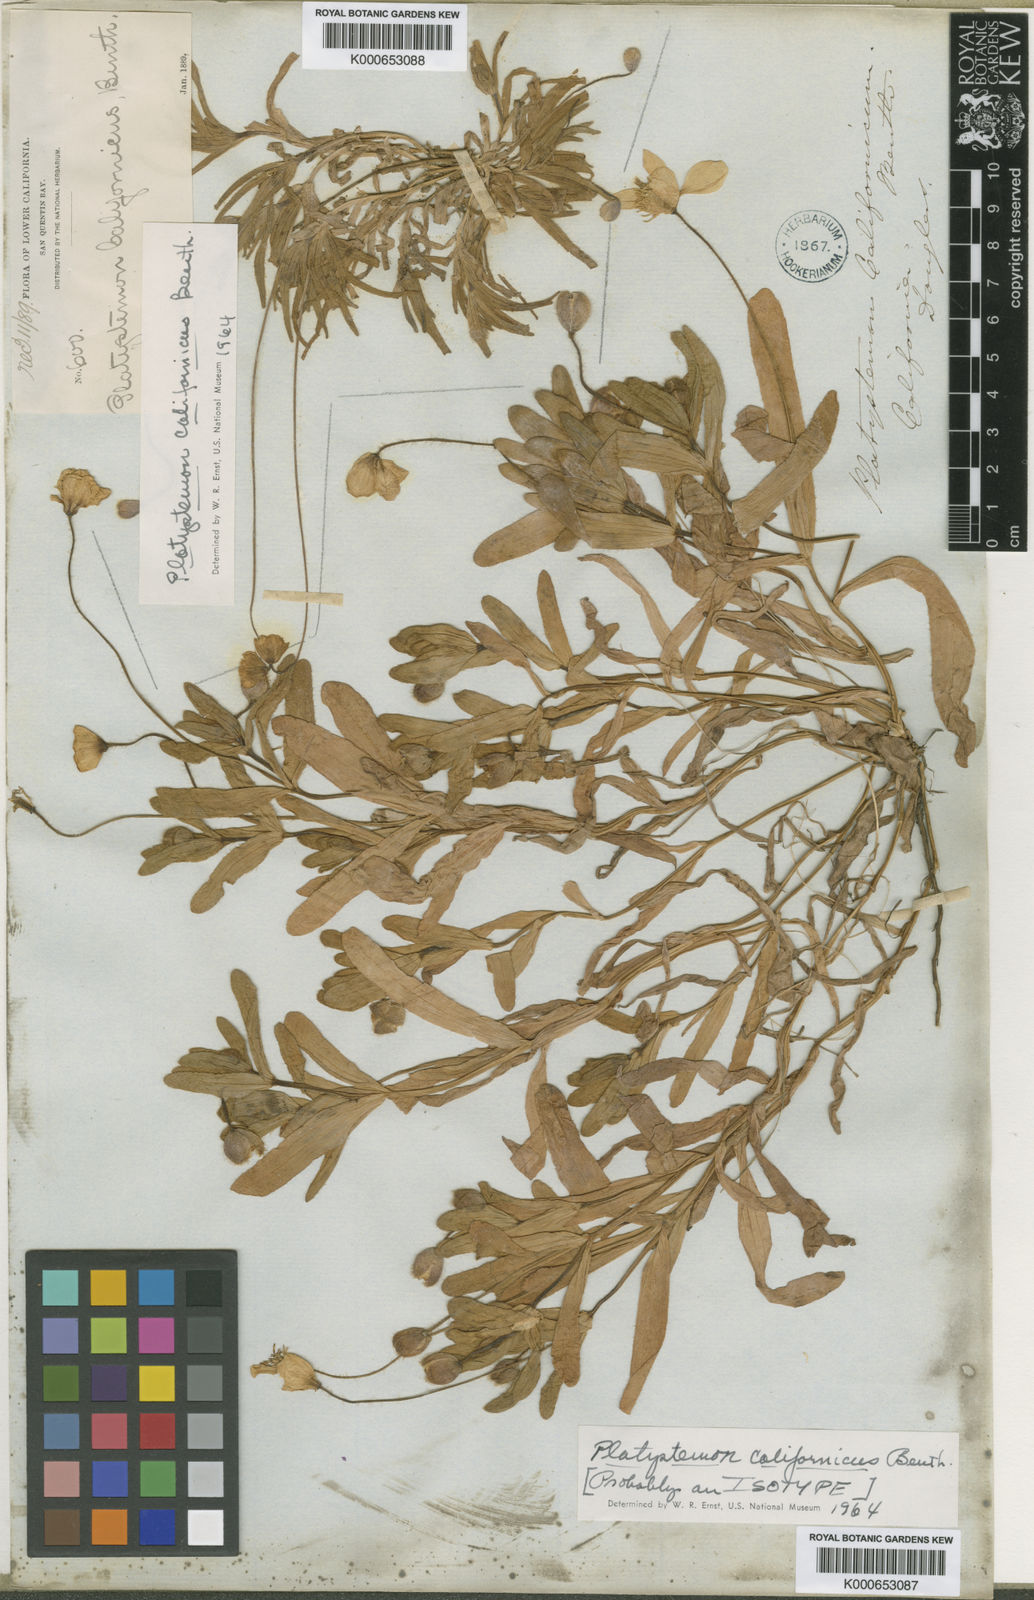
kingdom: Plantae
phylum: Tracheophyta
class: Magnoliopsida
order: Ranunculales
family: Papaveraceae
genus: Platystemon
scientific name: Platystemon californicus
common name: Cream-cups
